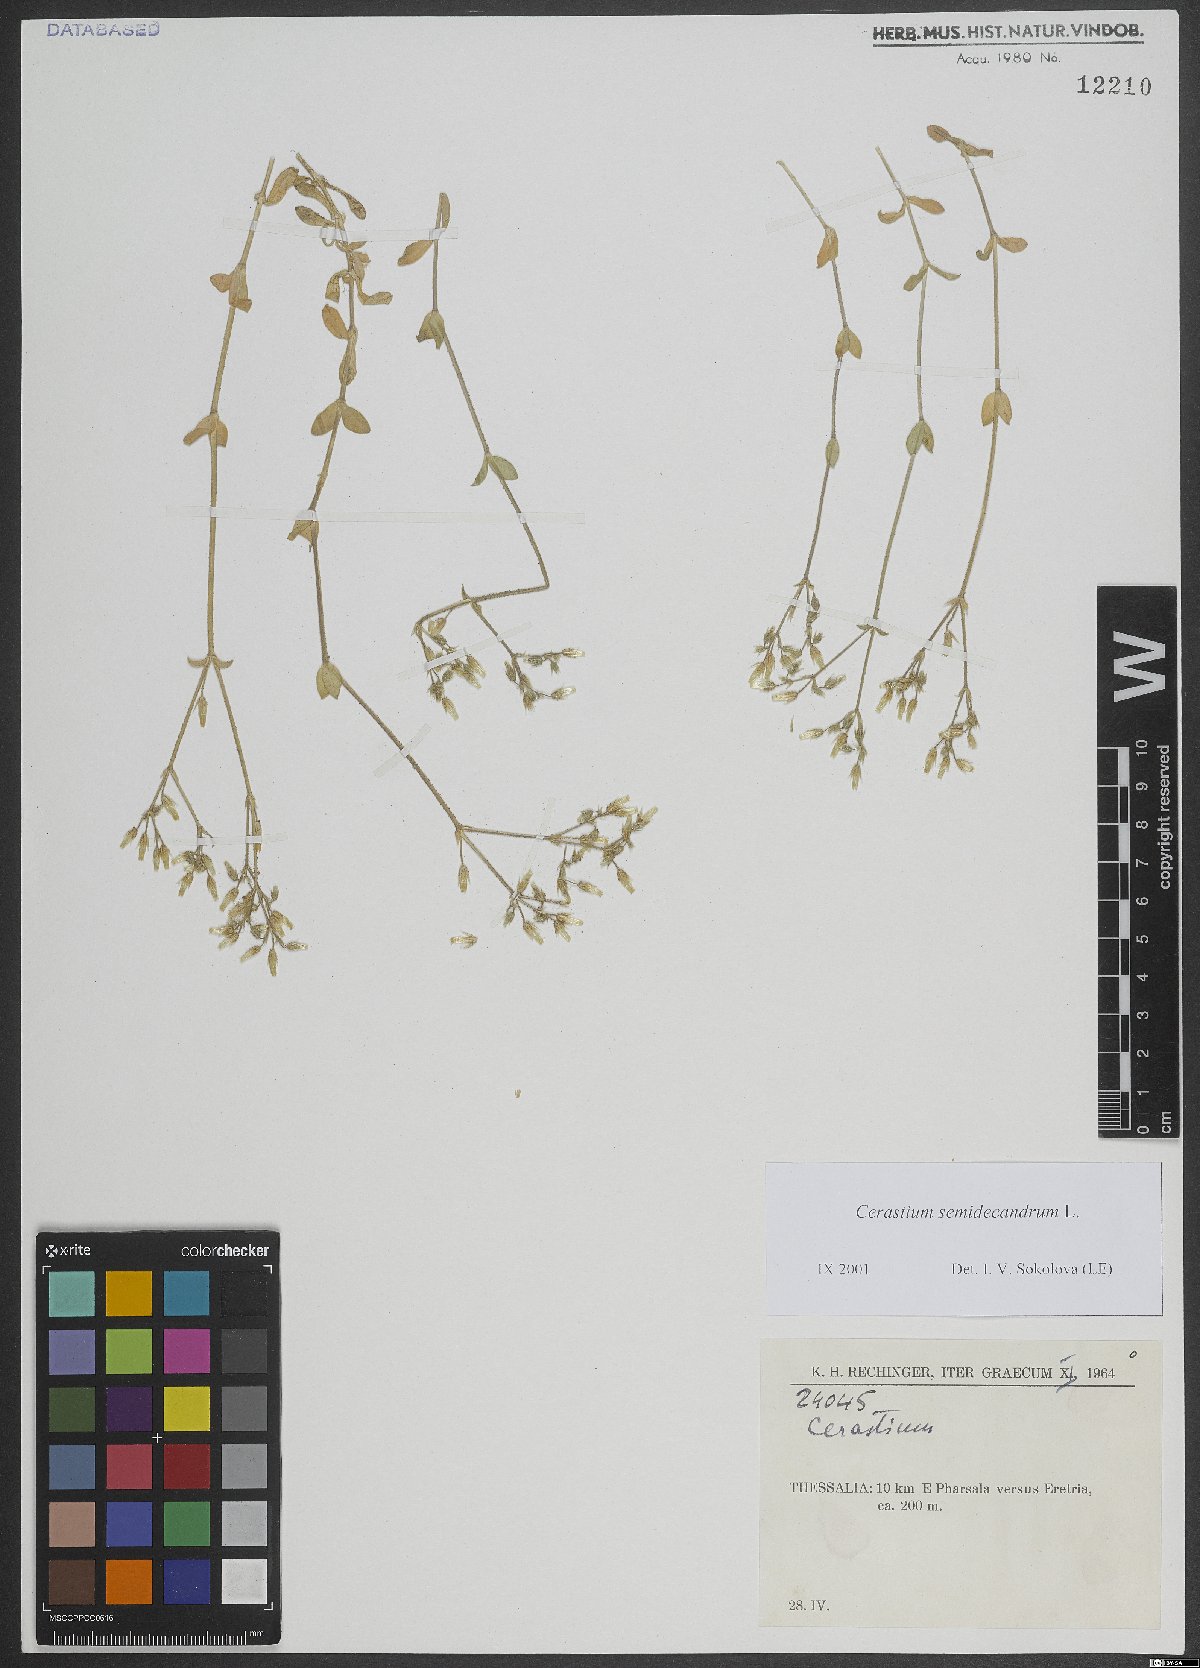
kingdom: Plantae
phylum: Tracheophyta
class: Magnoliopsida
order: Caryophyllales
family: Caryophyllaceae
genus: Cerastium
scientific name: Cerastium semidecandrum
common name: Little mouse-ear
